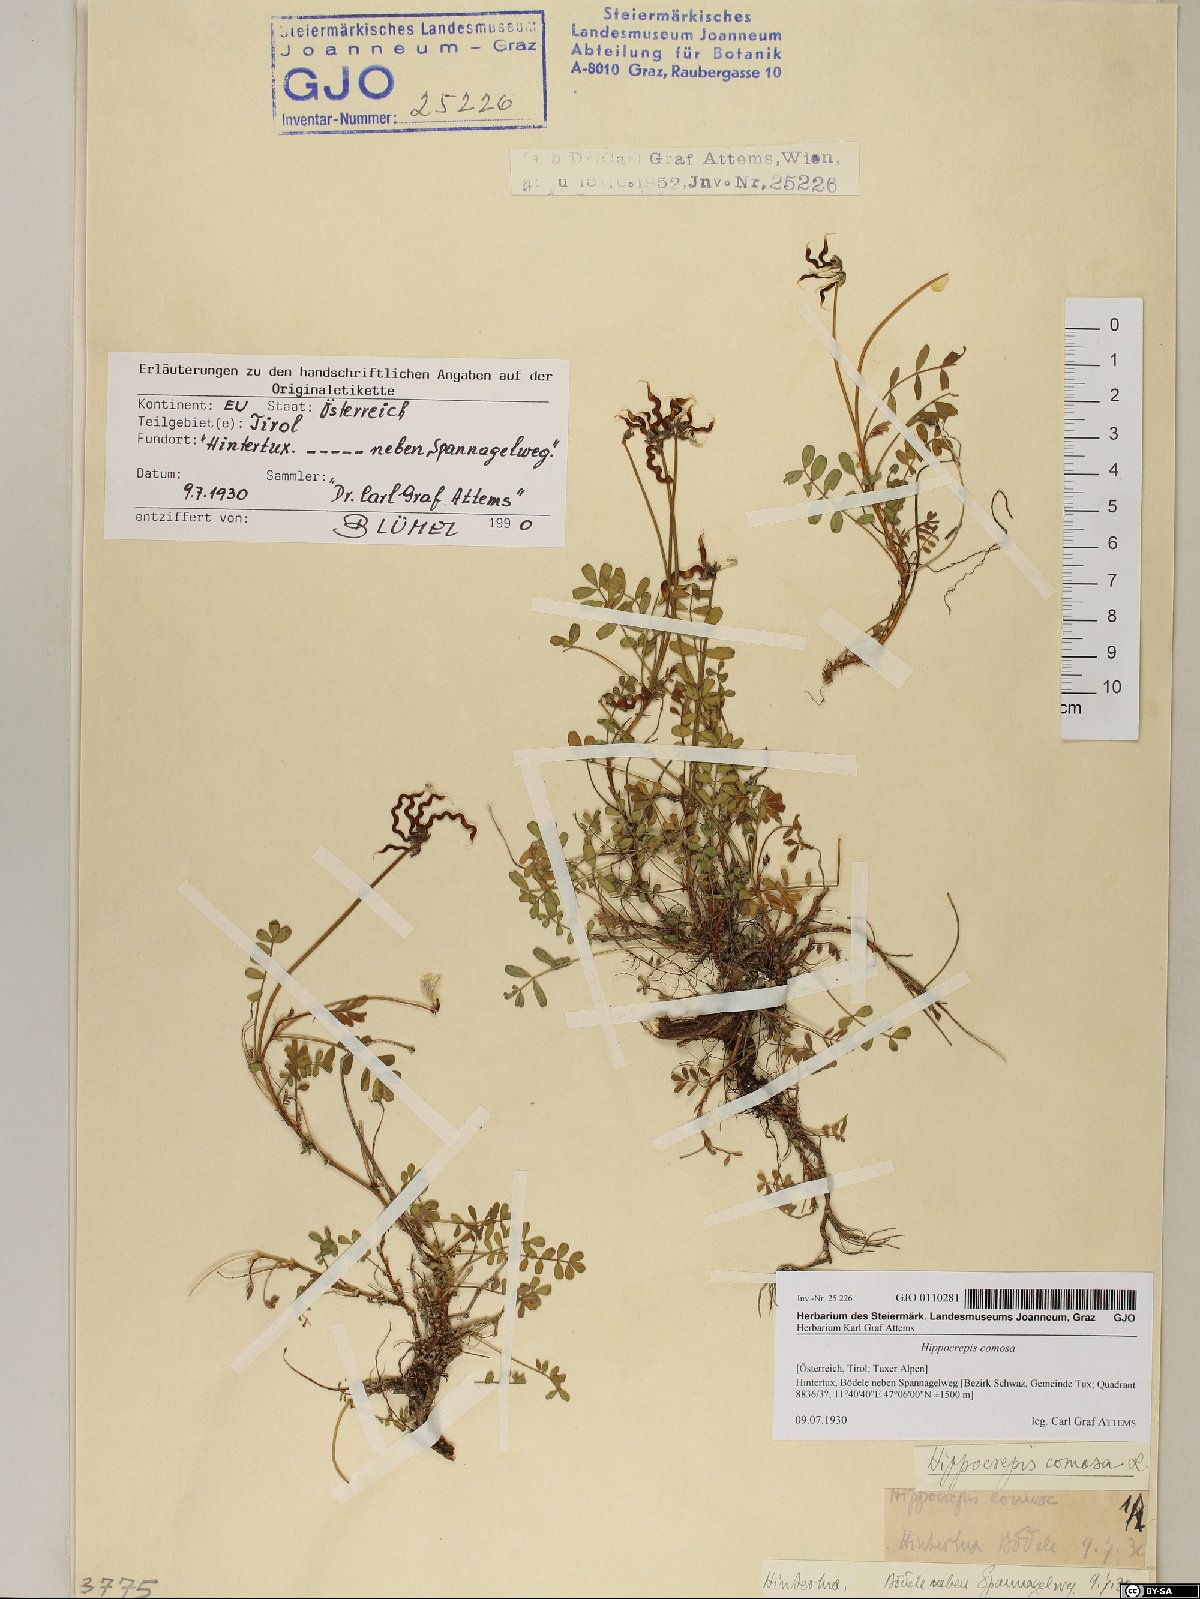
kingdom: Plantae
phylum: Tracheophyta
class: Magnoliopsida
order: Fabales
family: Fabaceae
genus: Hippocrepis
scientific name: Hippocrepis comosa
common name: Horseshoe vetch
